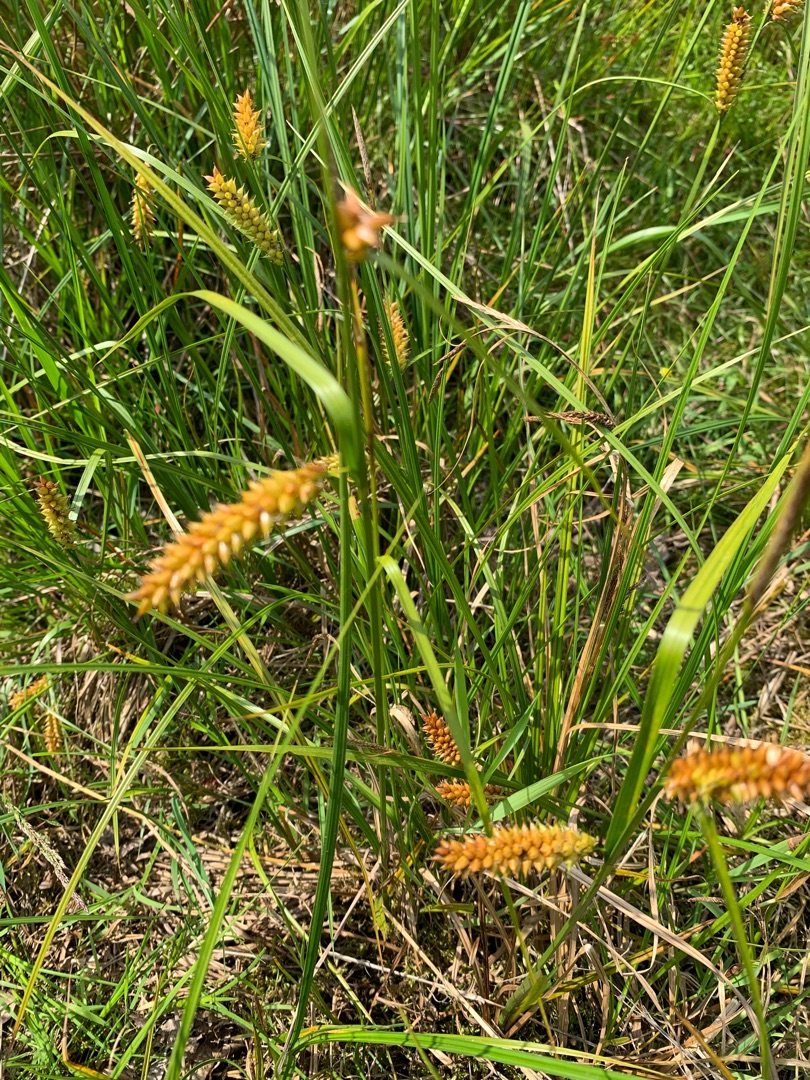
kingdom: Plantae
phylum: Tracheophyta
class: Liliopsida
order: Poales
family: Cyperaceae
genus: Carex
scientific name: Carex vesicaria
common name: Blære-star
